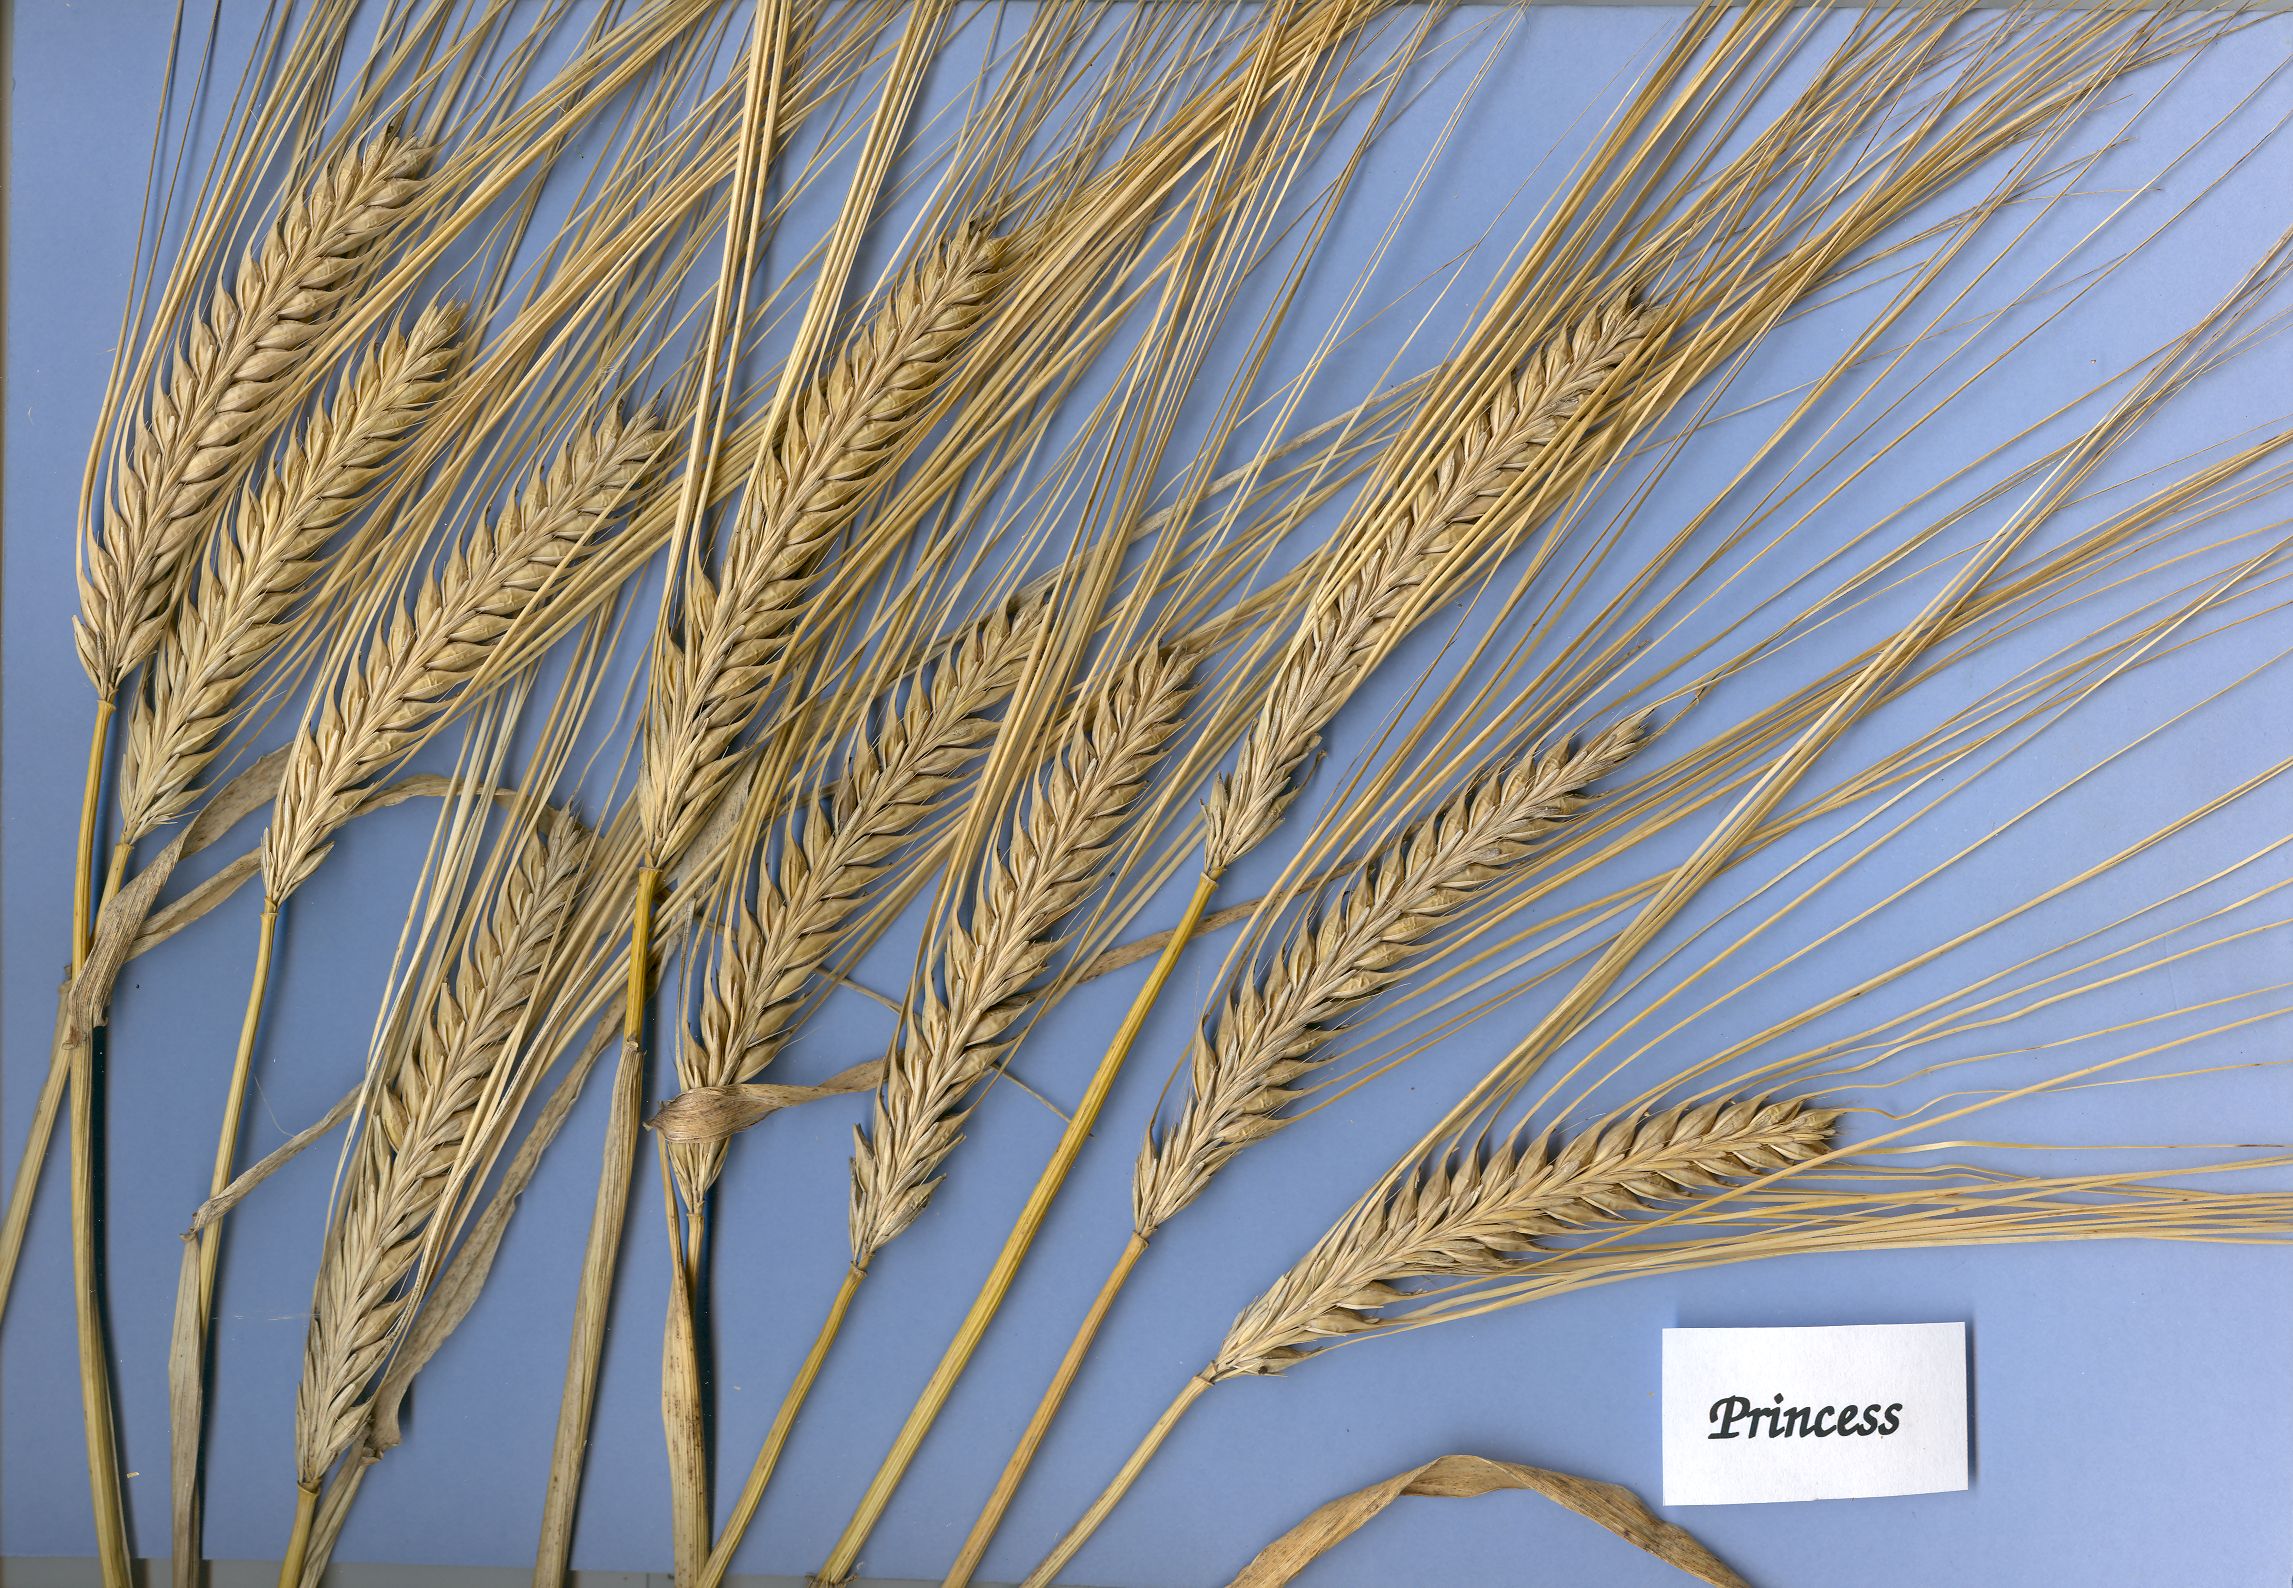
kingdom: Plantae
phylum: Tracheophyta
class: Liliopsida
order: Poales
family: Poaceae
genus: Hordeum
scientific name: Hordeum vulgare
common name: Common barley
